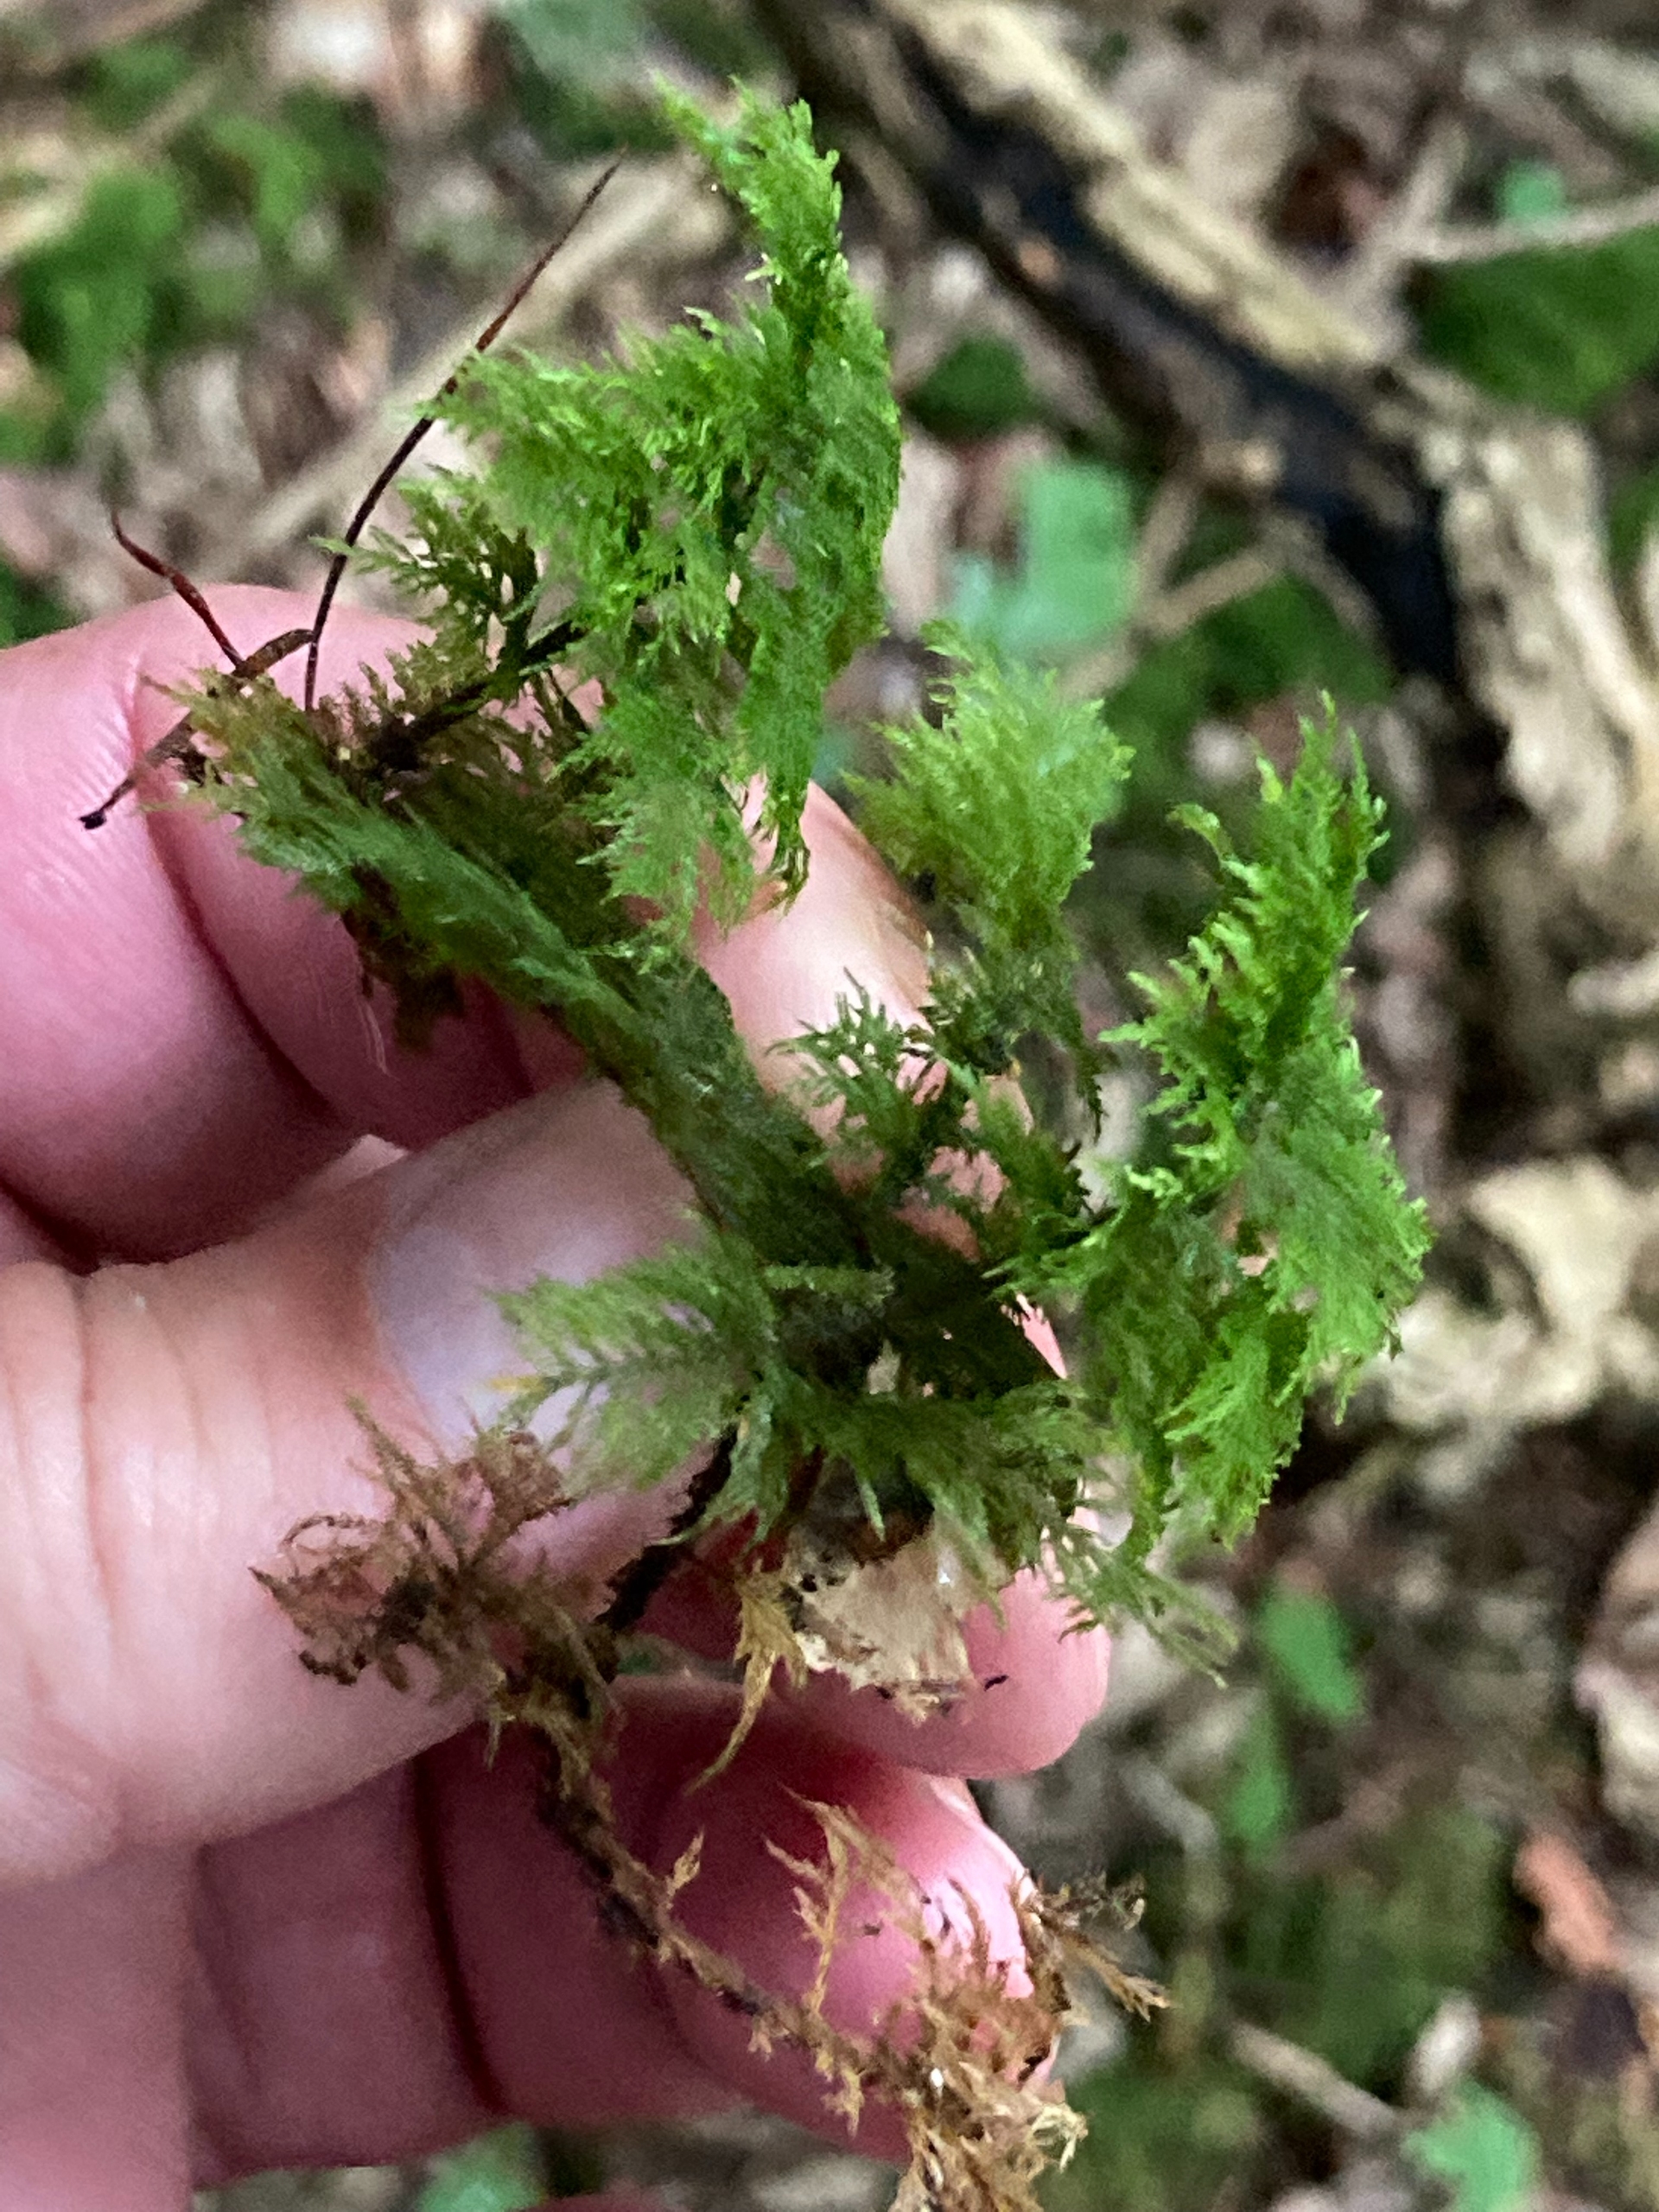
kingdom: Plantae
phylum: Bryophyta
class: Bryopsida
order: Hypnales
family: Thuidiaceae
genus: Thuidium
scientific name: Thuidium tamariscinum
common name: Pryd-bregnemos
